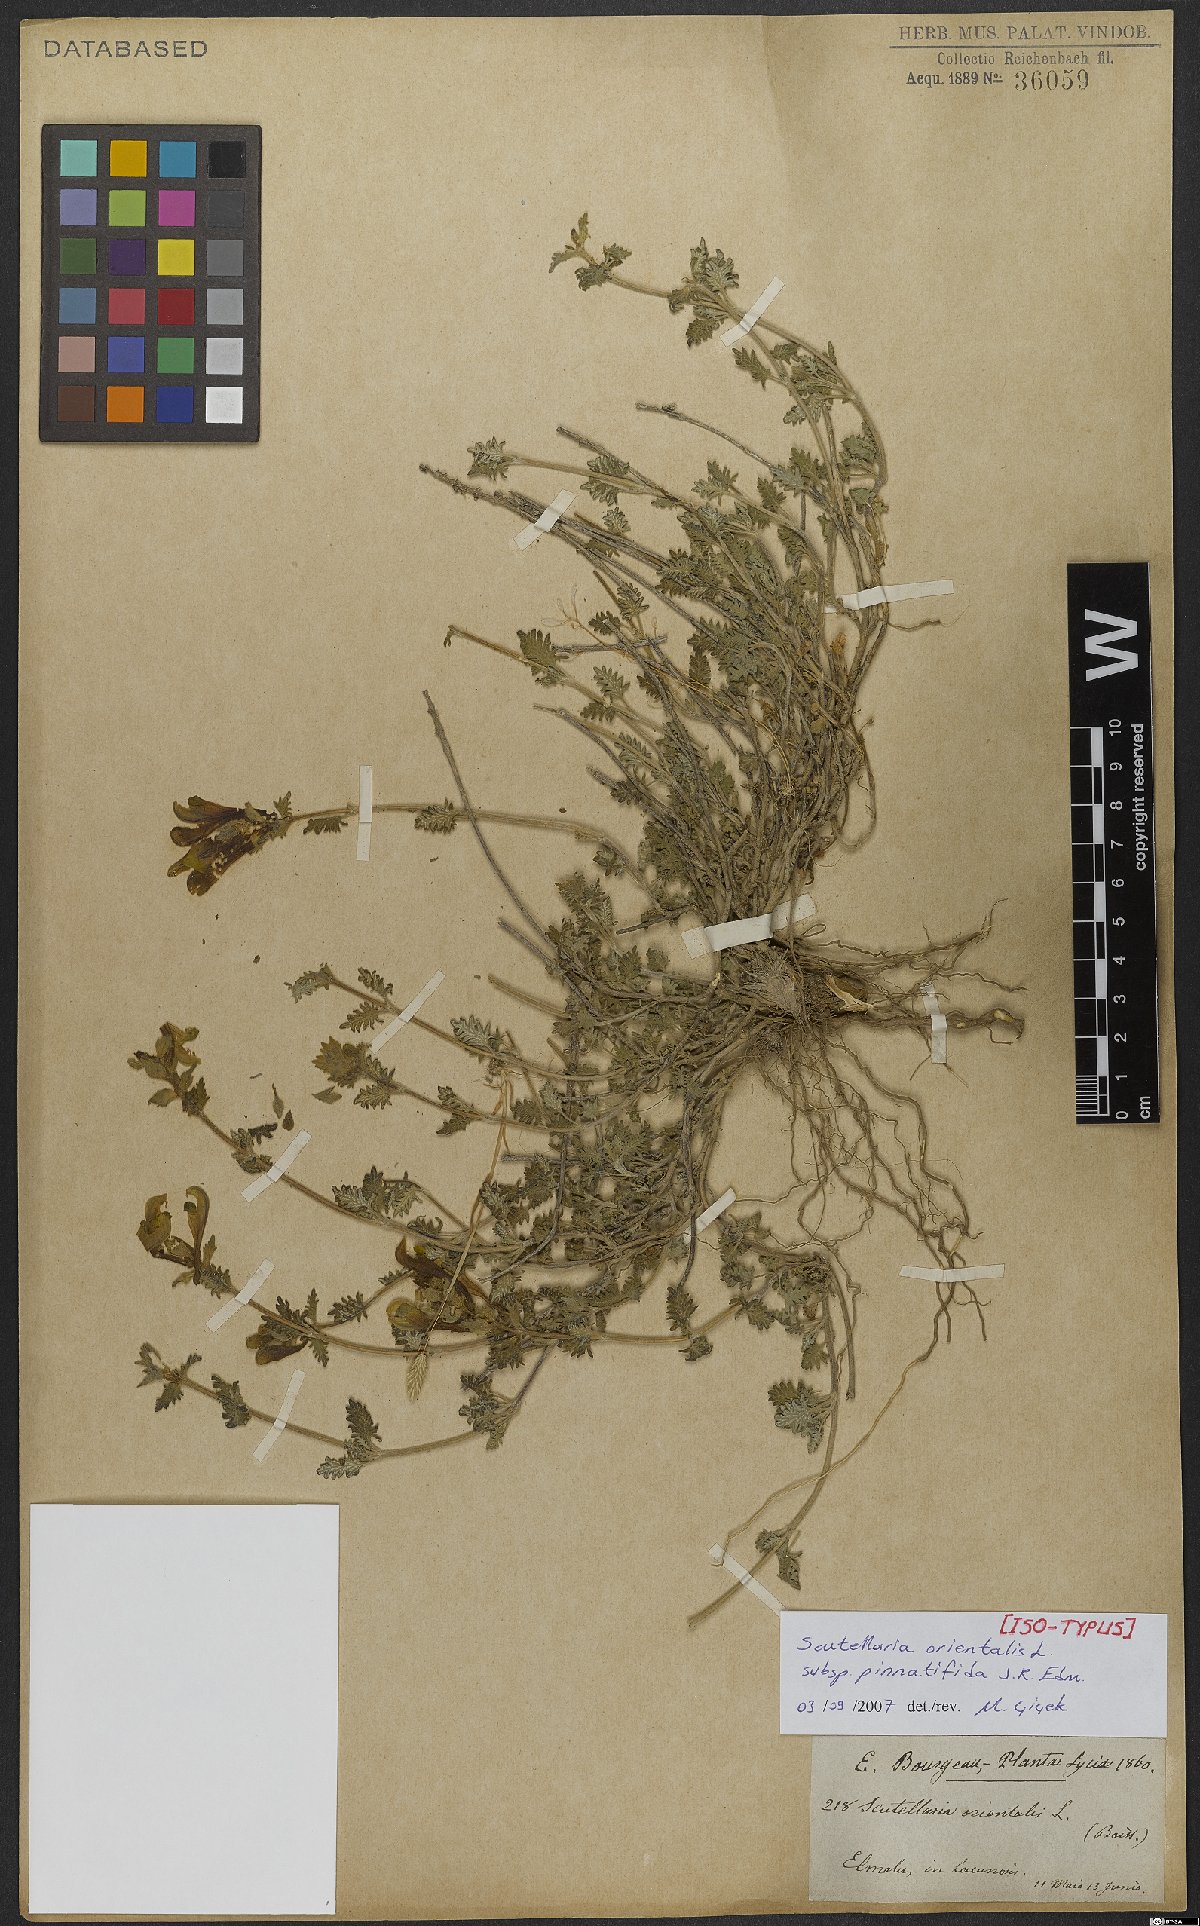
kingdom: Plantae
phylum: Tracheophyta
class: Magnoliopsida
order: Lamiales
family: Lamiaceae
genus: Scutellaria
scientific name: Scutellaria orientalis
